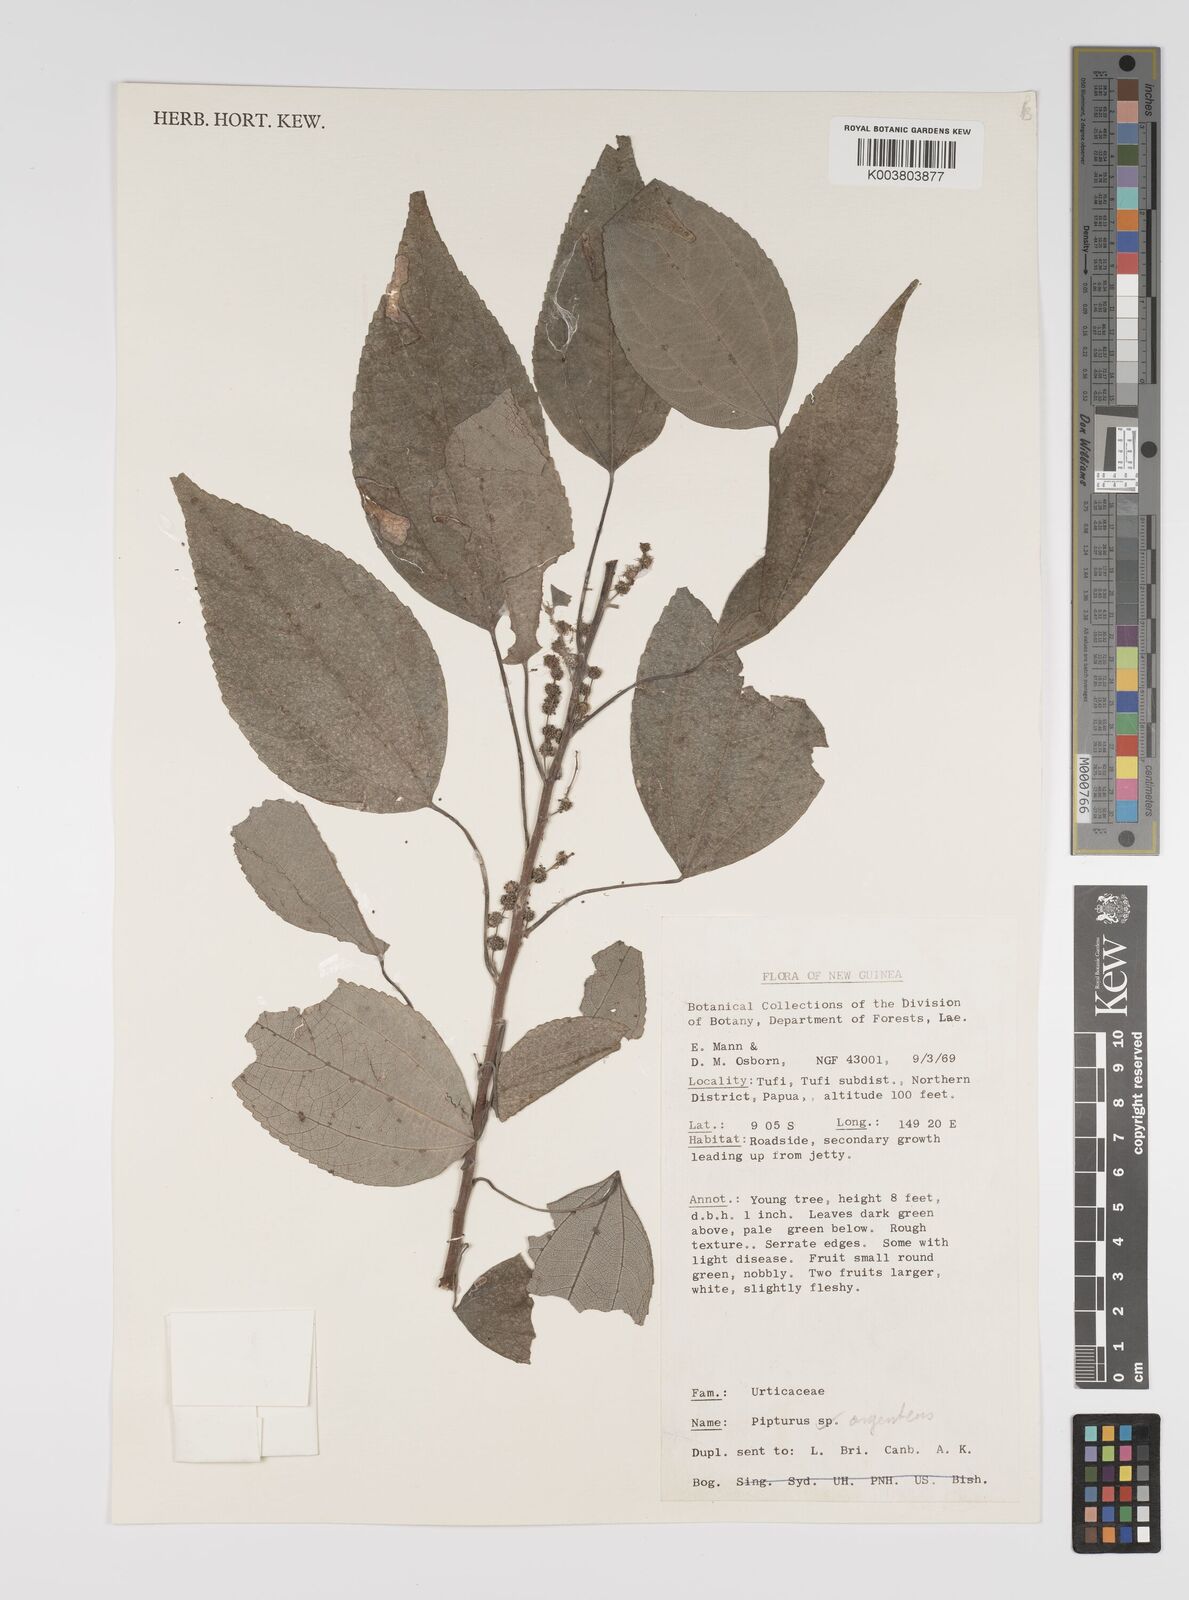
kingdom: Plantae
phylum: Tracheophyta
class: Magnoliopsida
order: Rosales
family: Urticaceae
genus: Pipturus
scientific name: Pipturus argenteus
